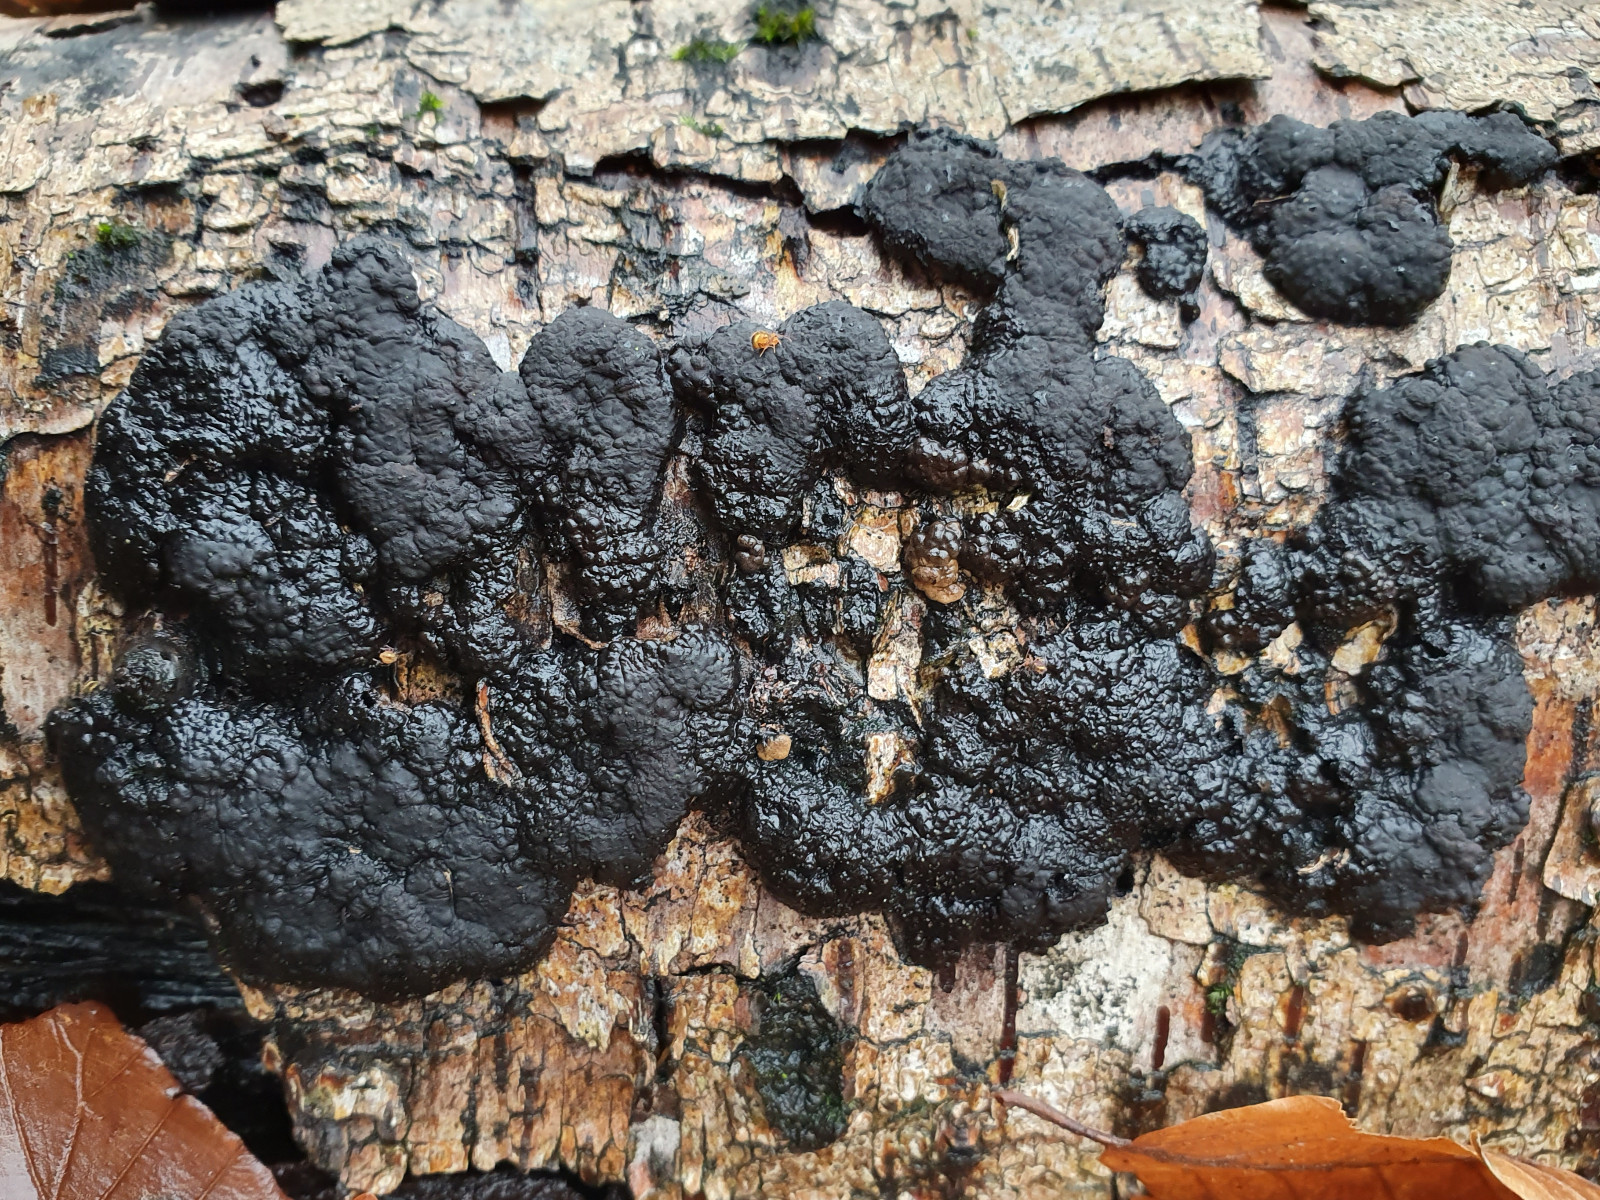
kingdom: Fungi
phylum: Ascomycota
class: Sordariomycetes
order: Xylariales
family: Hypoxylaceae
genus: Jackrogersella
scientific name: Jackrogersella multiformis
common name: foranderlig kulbær
